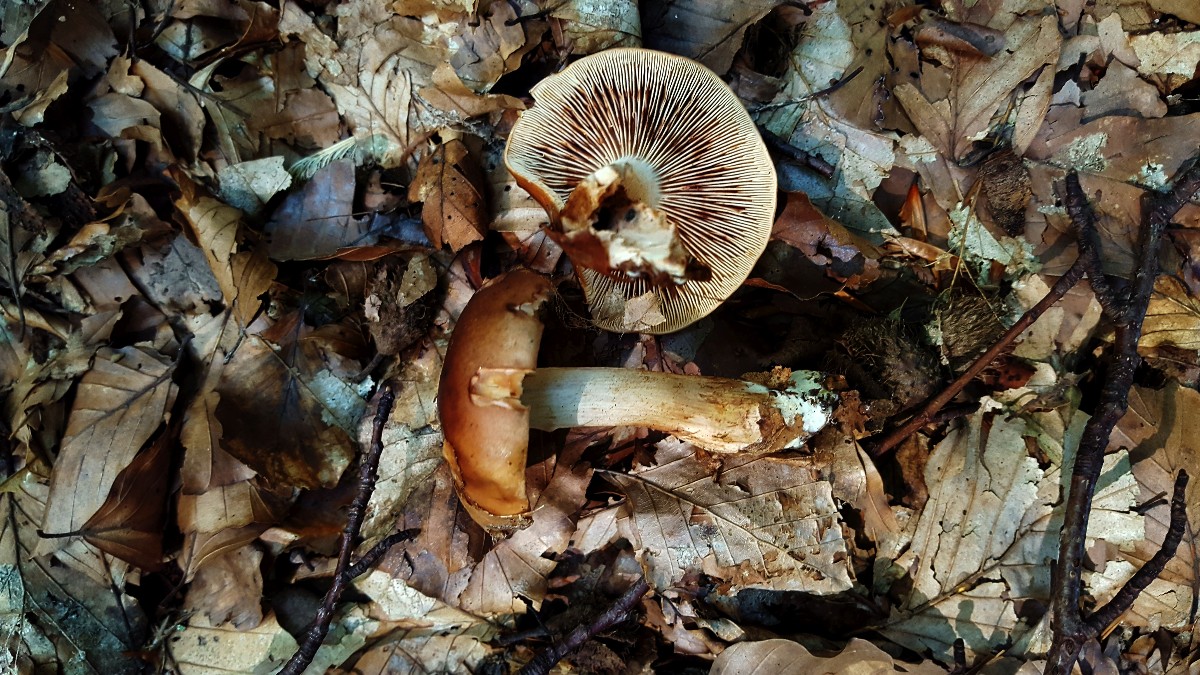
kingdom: Fungi
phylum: Basidiomycota
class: Agaricomycetes
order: Agaricales
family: Tricholomataceae
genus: Tricholoma
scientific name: Tricholoma ustale
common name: sveden ridderhat
